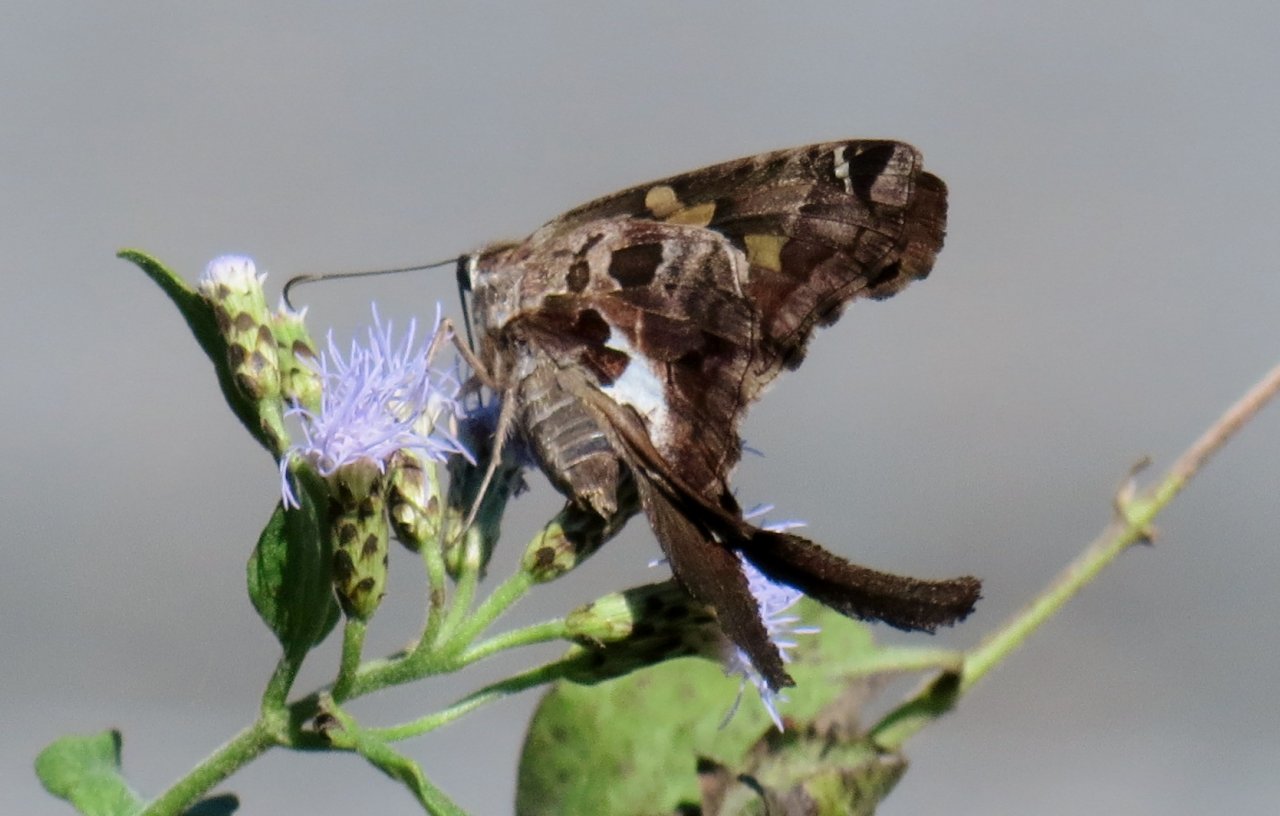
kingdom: Animalia
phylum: Arthropoda
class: Insecta
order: Lepidoptera
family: Hesperiidae
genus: Chioides
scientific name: Chioides zilpa
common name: Zilpa Longtail
